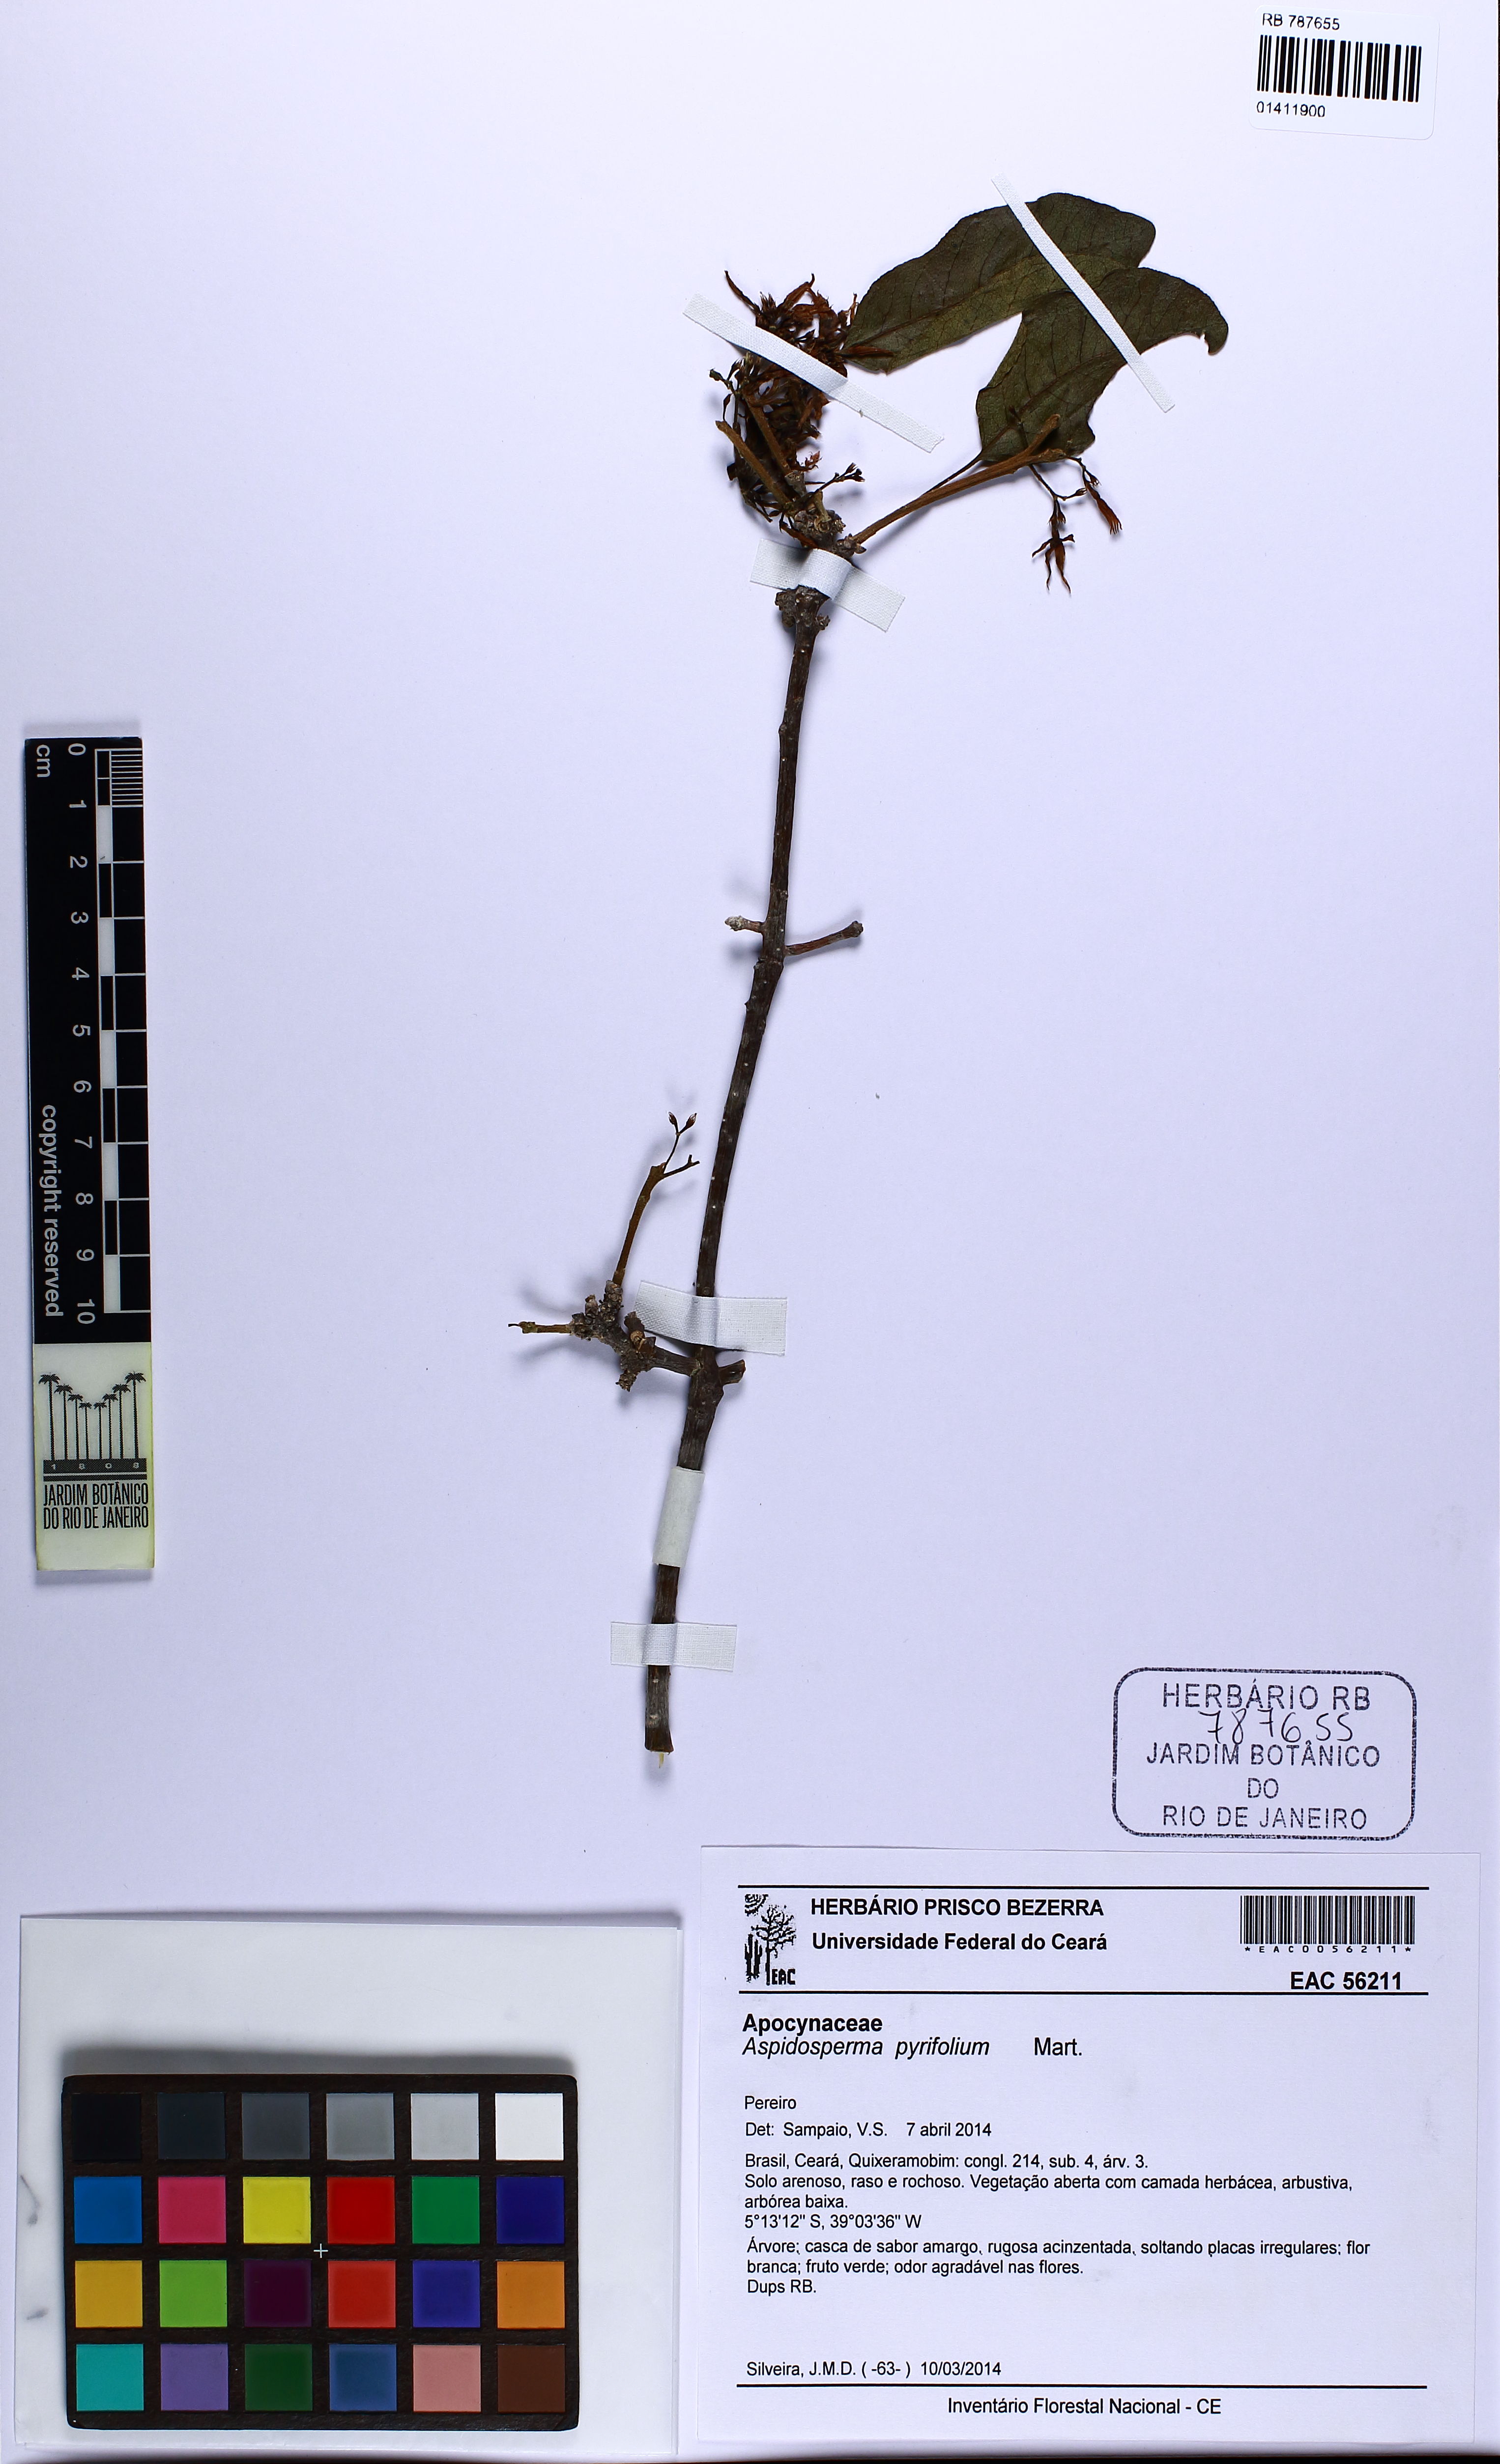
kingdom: Plantae
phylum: Tracheophyta
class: Magnoliopsida
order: Gentianales
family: Apocynaceae
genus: Aspidosperma
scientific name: Aspidosperma pyrifolium
